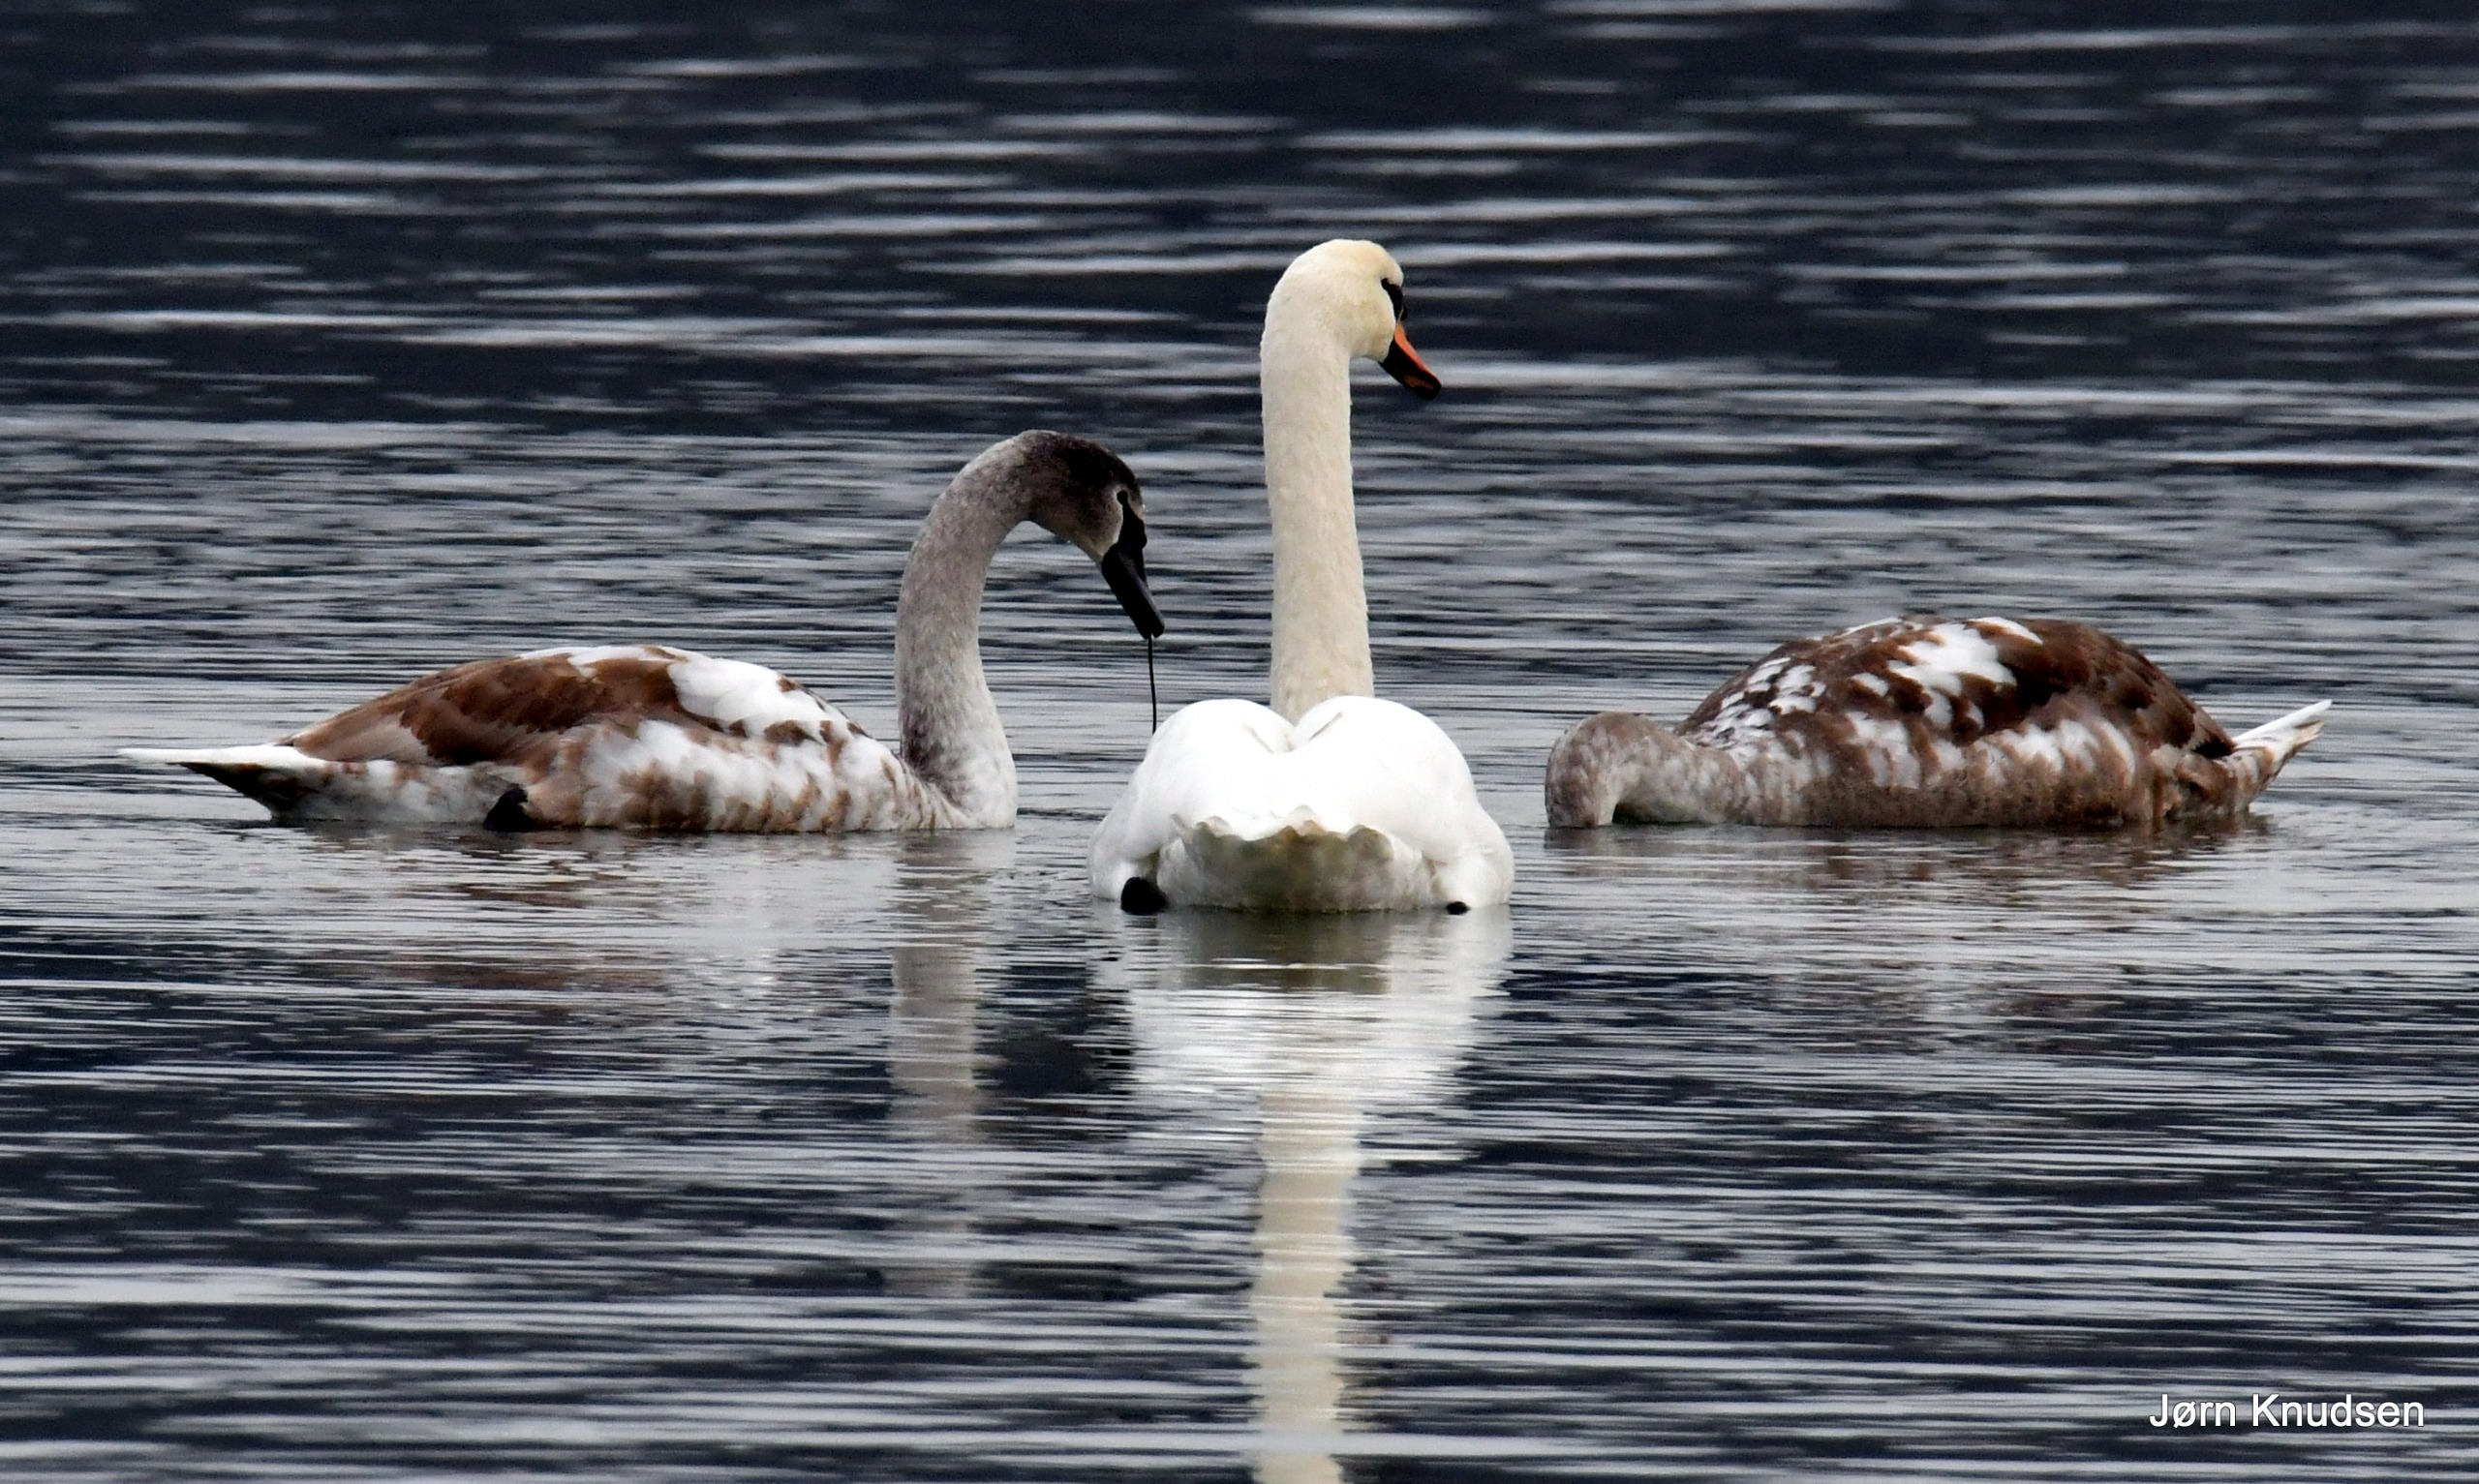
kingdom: Animalia
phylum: Chordata
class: Aves
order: Anseriformes
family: Anatidae
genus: Cygnus
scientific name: Cygnus olor
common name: Knopsvane
